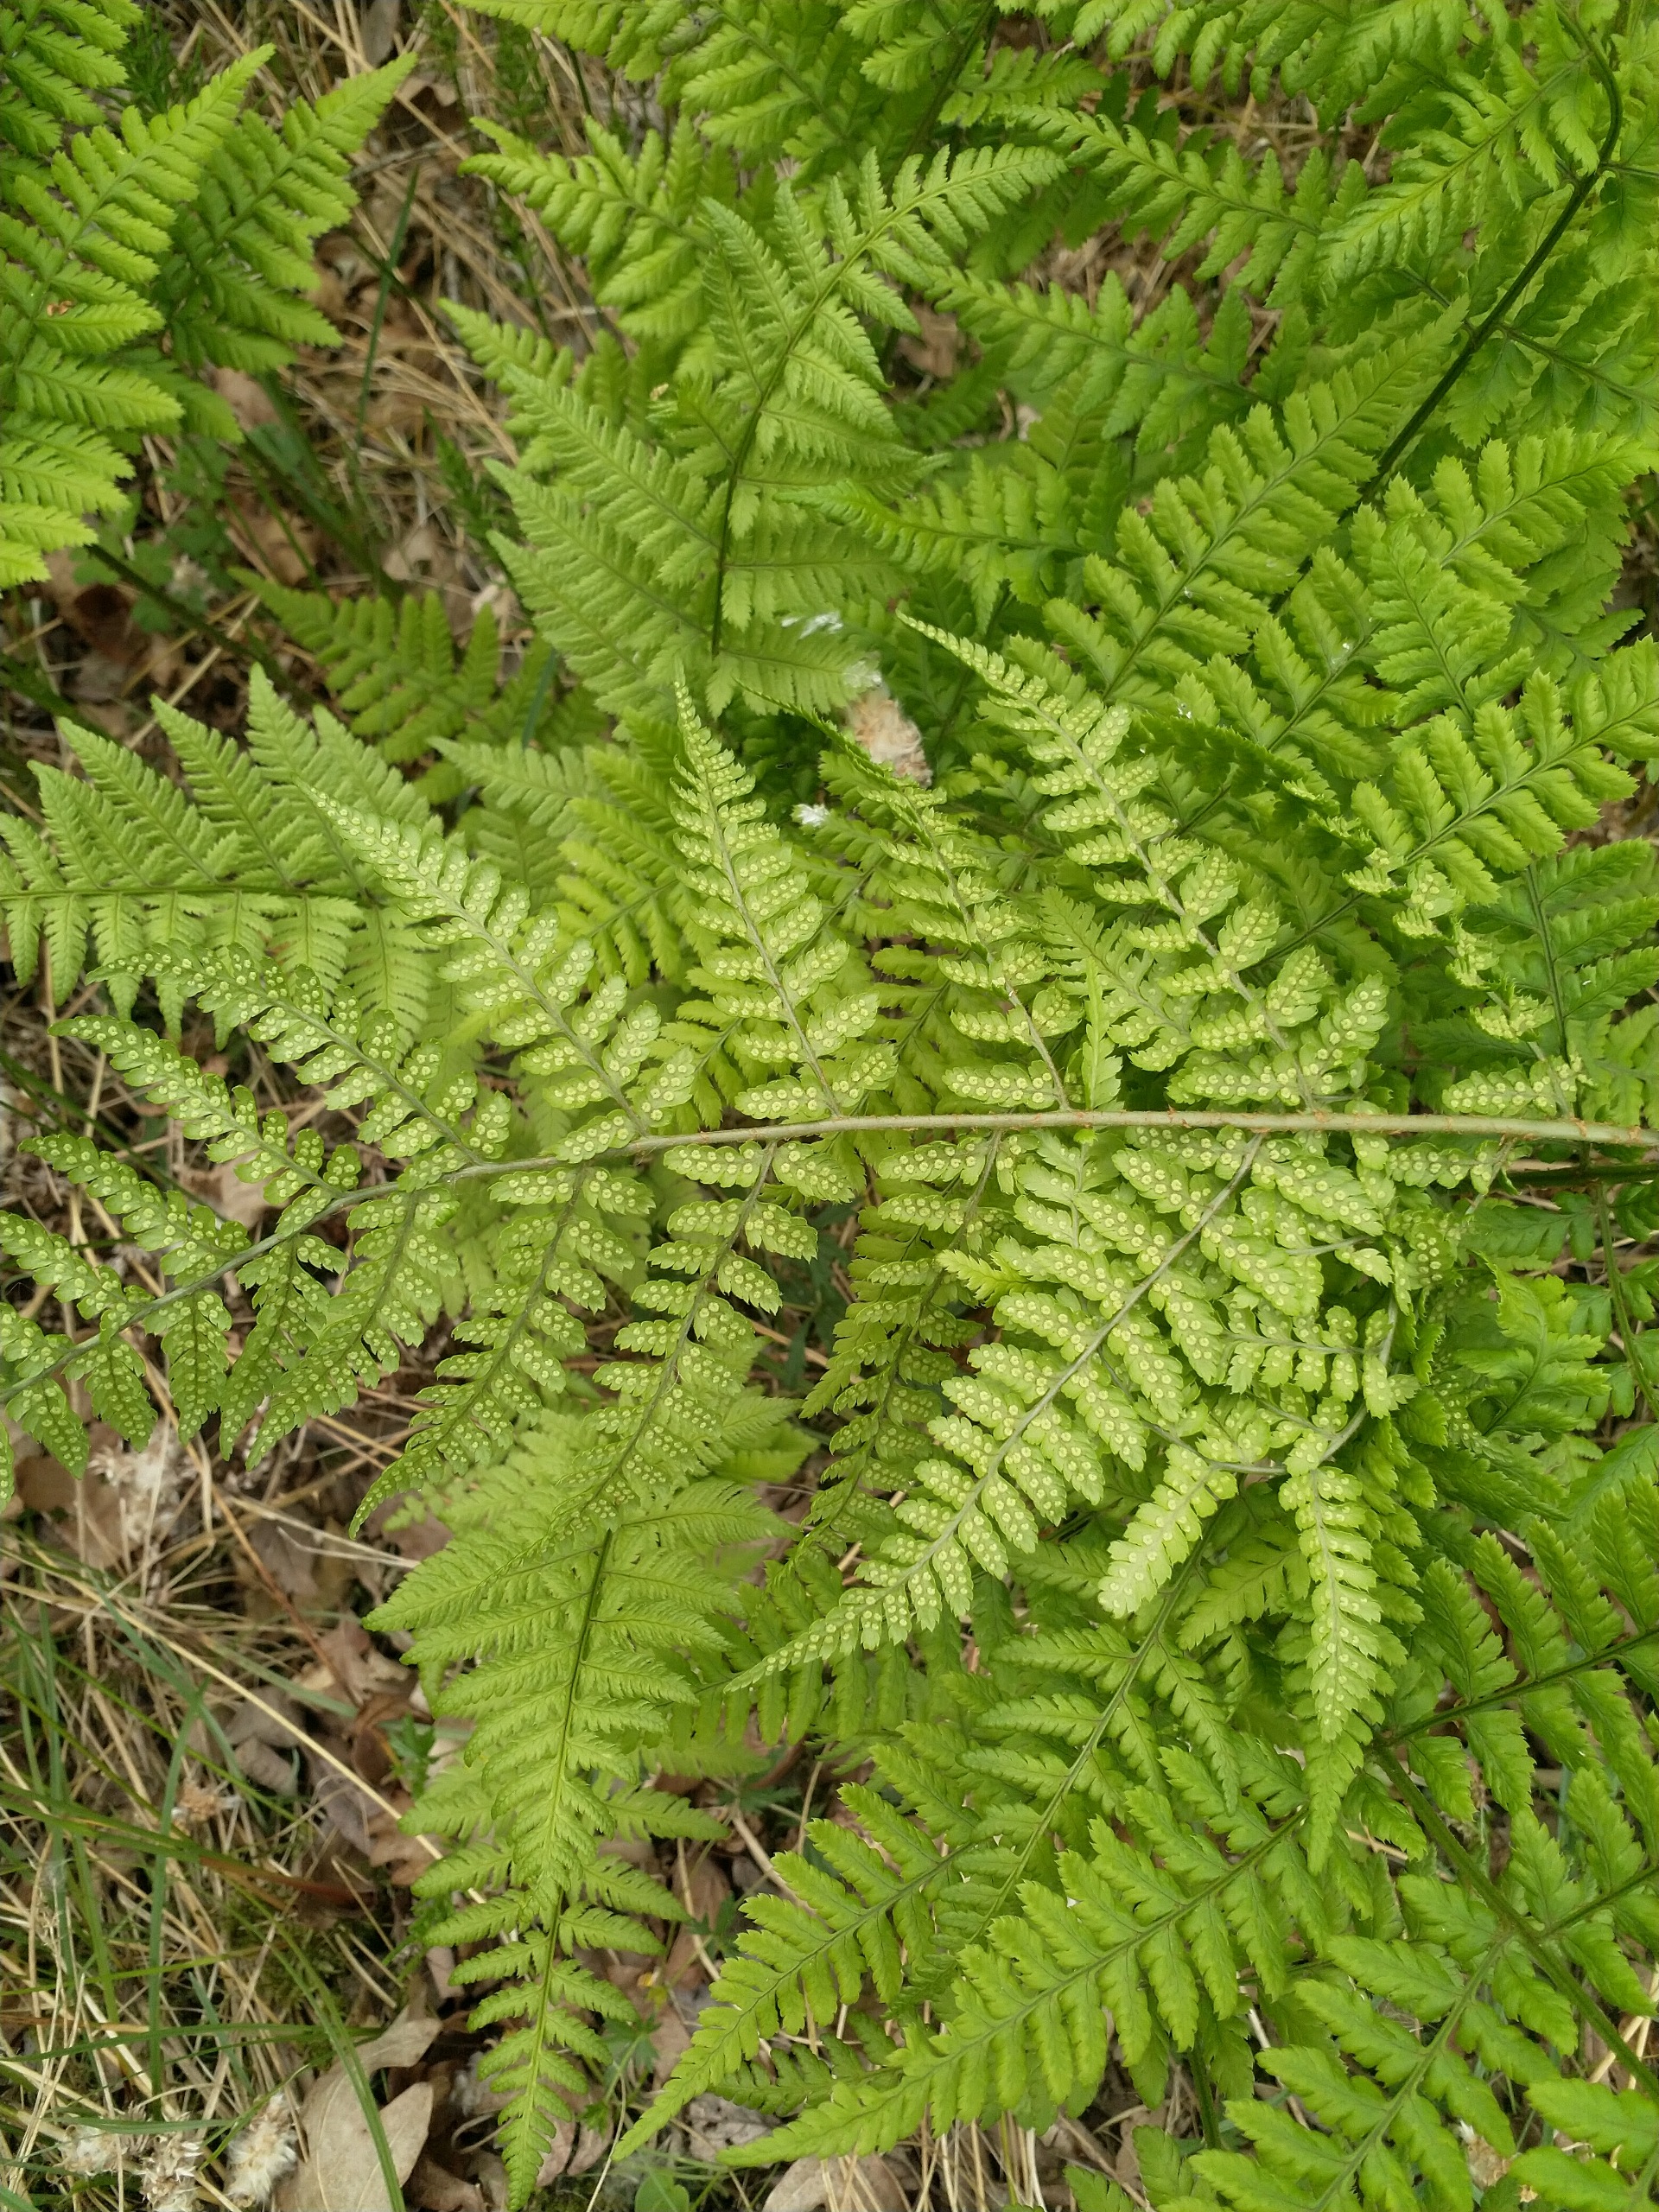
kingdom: Plantae
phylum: Tracheophyta
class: Polypodiopsida
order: Polypodiales
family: Dryopteridaceae
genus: Dryopteris
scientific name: Dryopteris dilatata
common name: Bredbladet mangeløv
